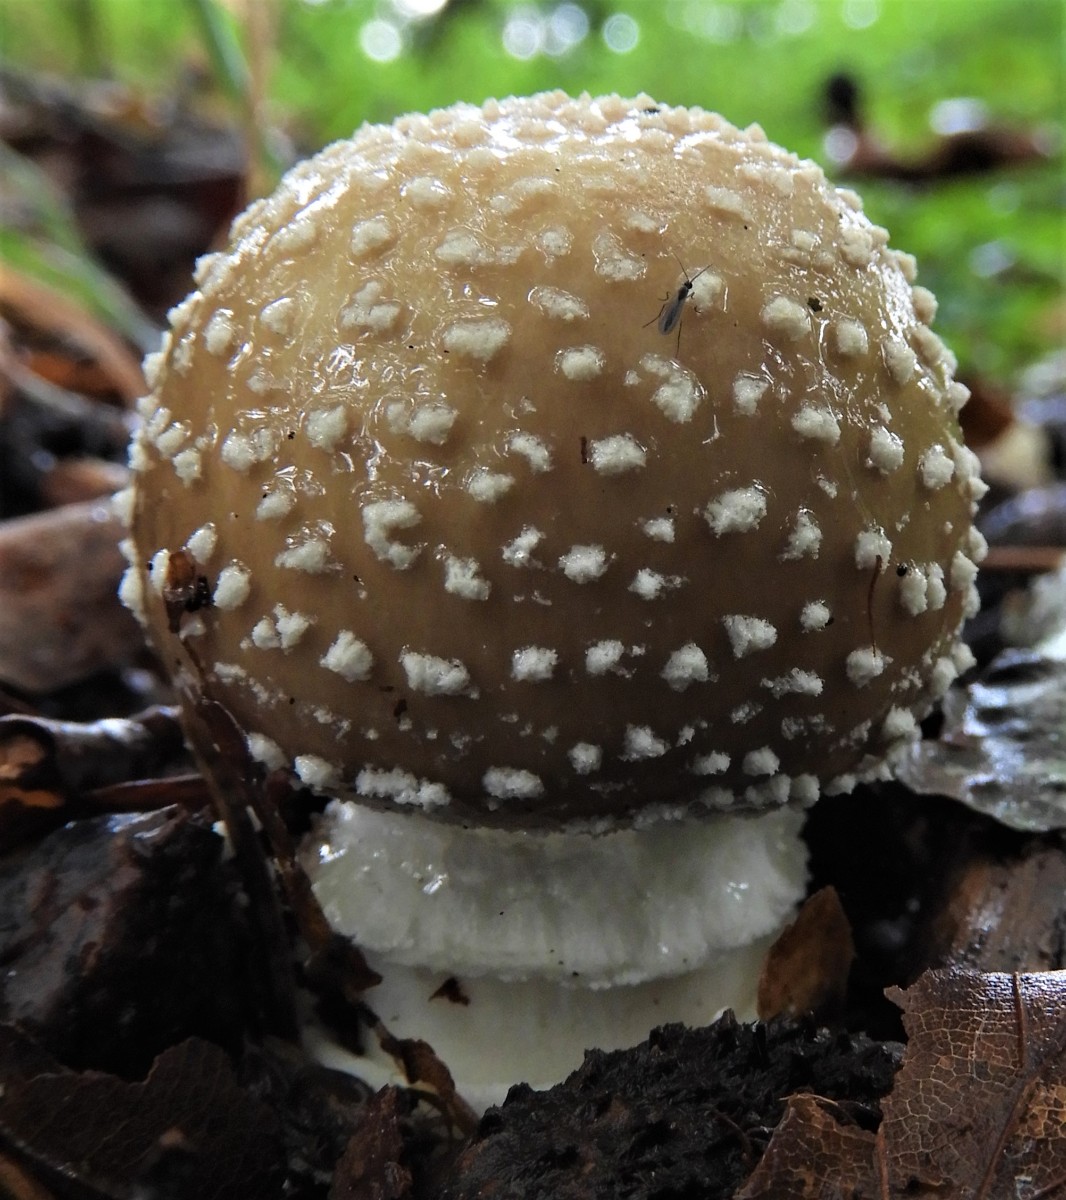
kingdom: Fungi
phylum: Basidiomycota
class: Agaricomycetes
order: Agaricales
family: Amanitaceae
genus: Amanita
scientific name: Amanita pantherina
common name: panter-fluesvamp
